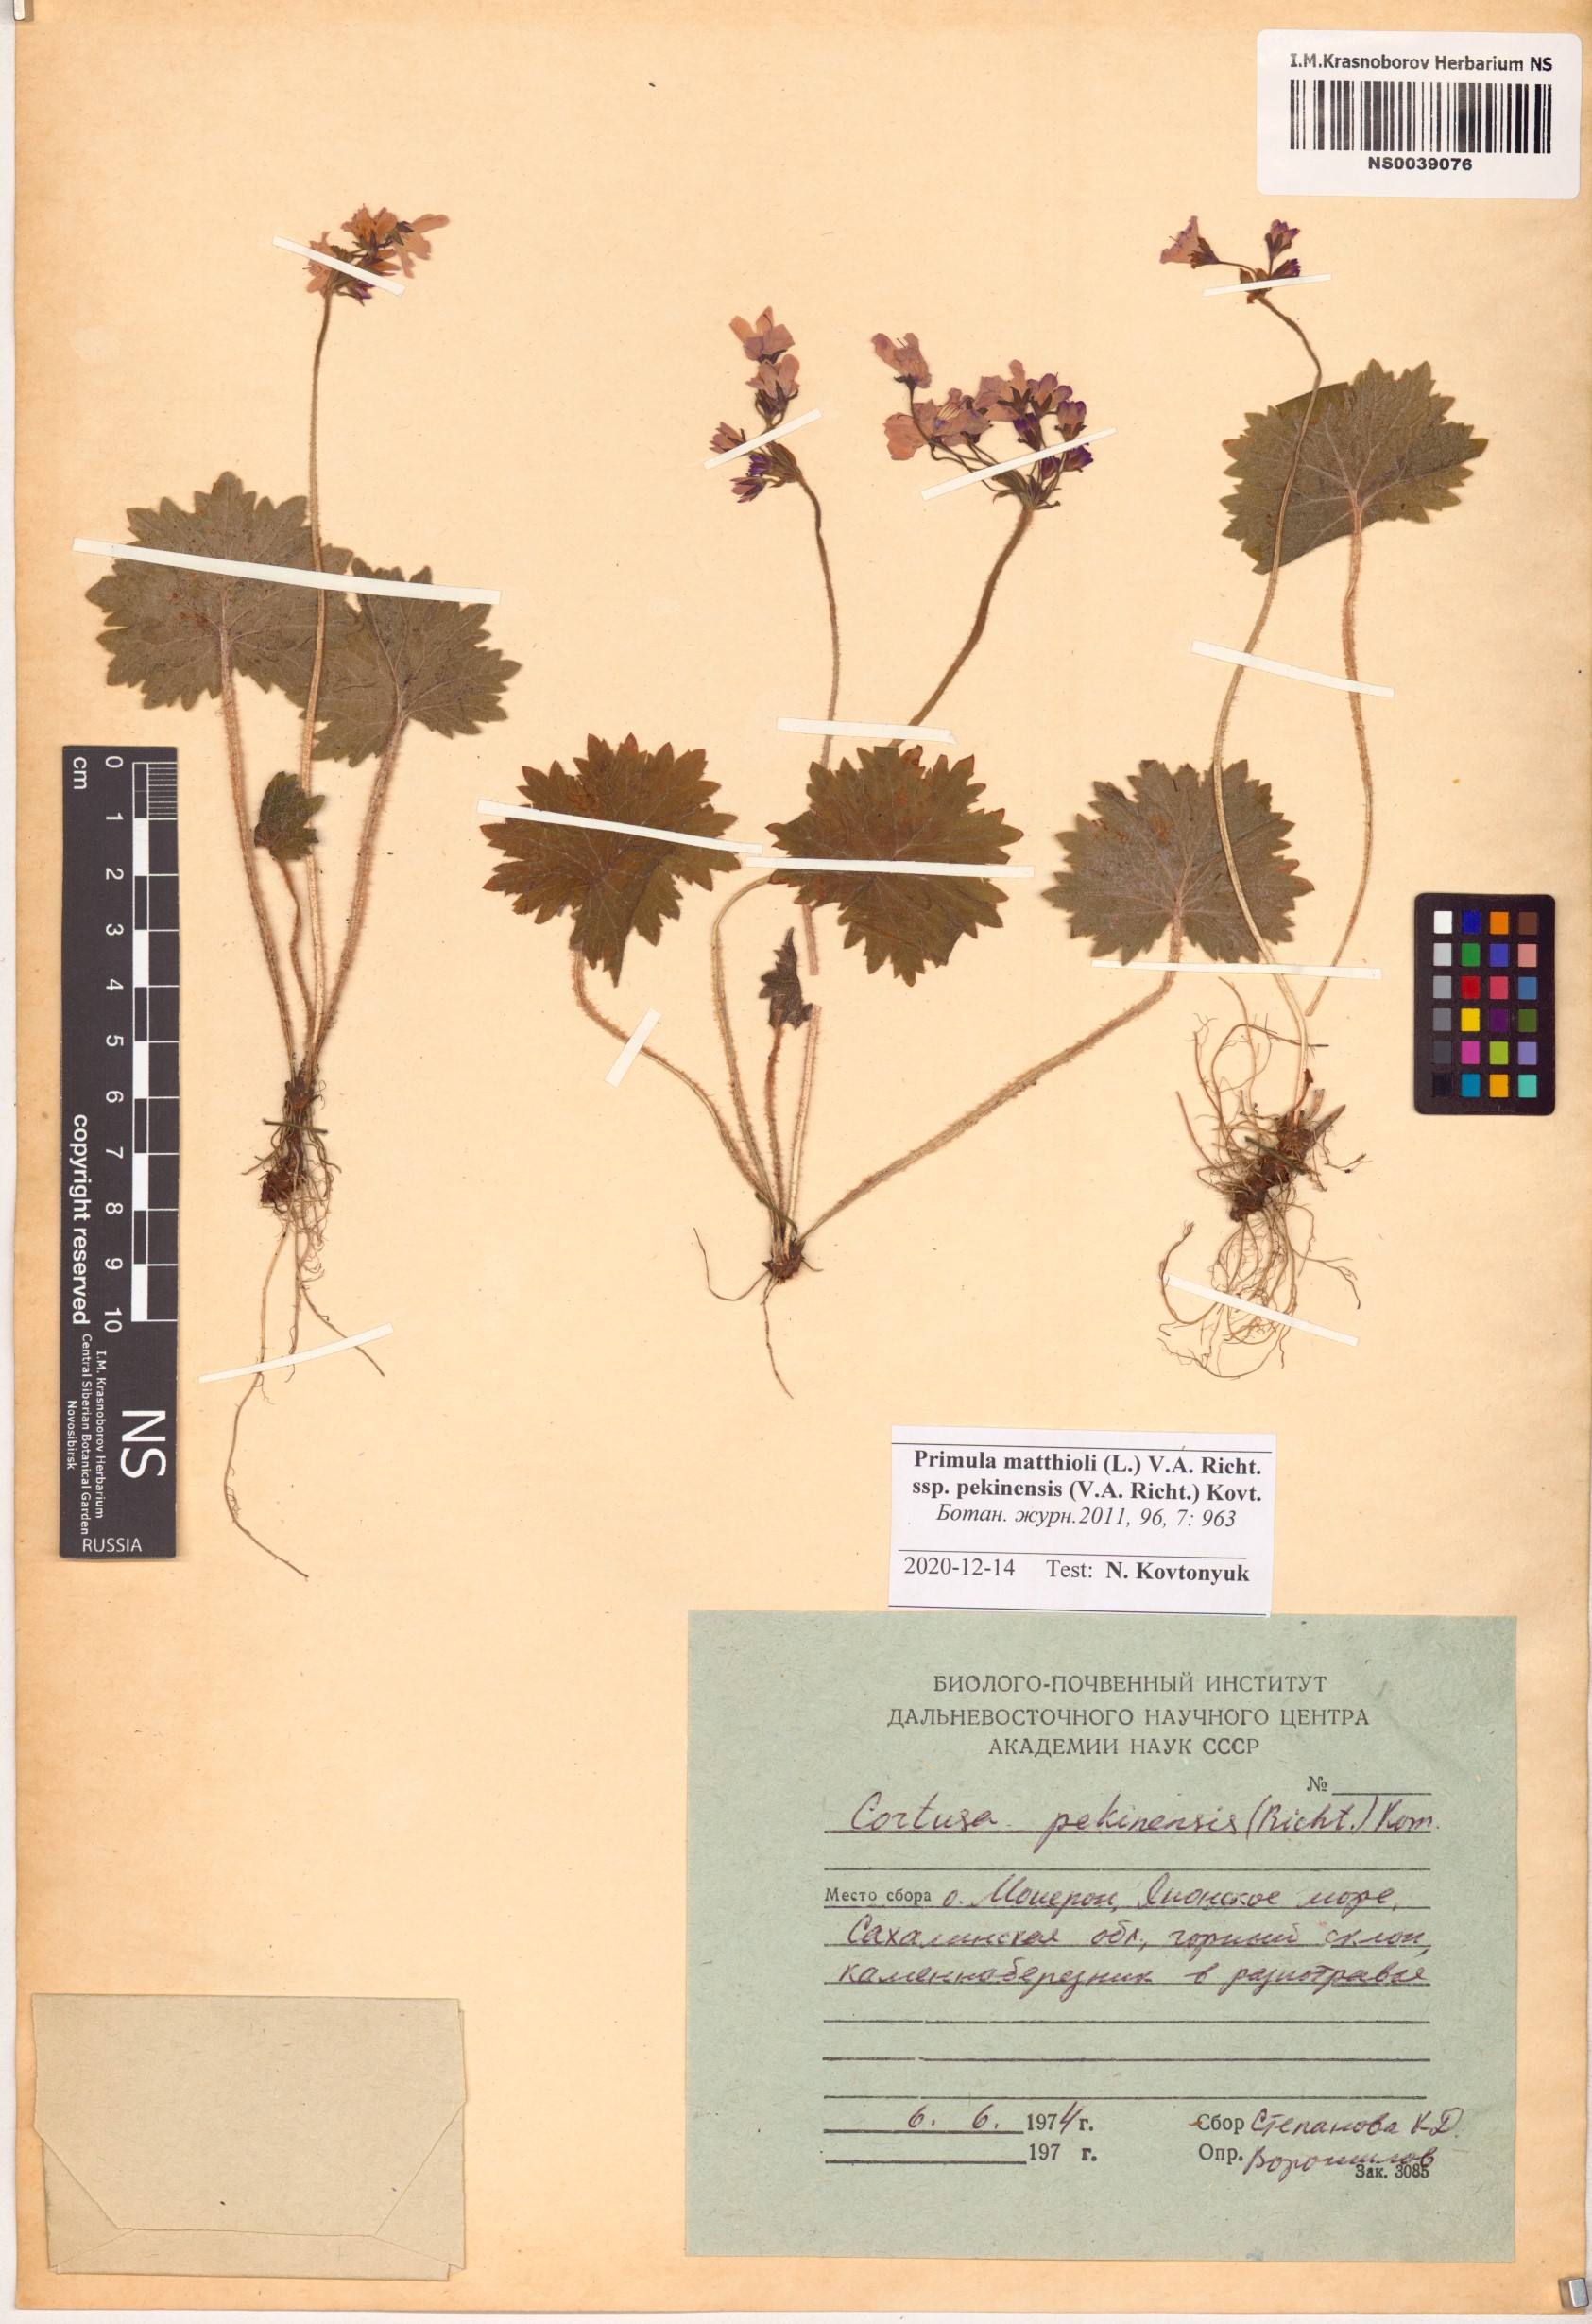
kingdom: Plantae
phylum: Tracheophyta
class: Magnoliopsida
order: Ericales
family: Primulaceae
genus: Primula
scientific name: Primula matthioli
